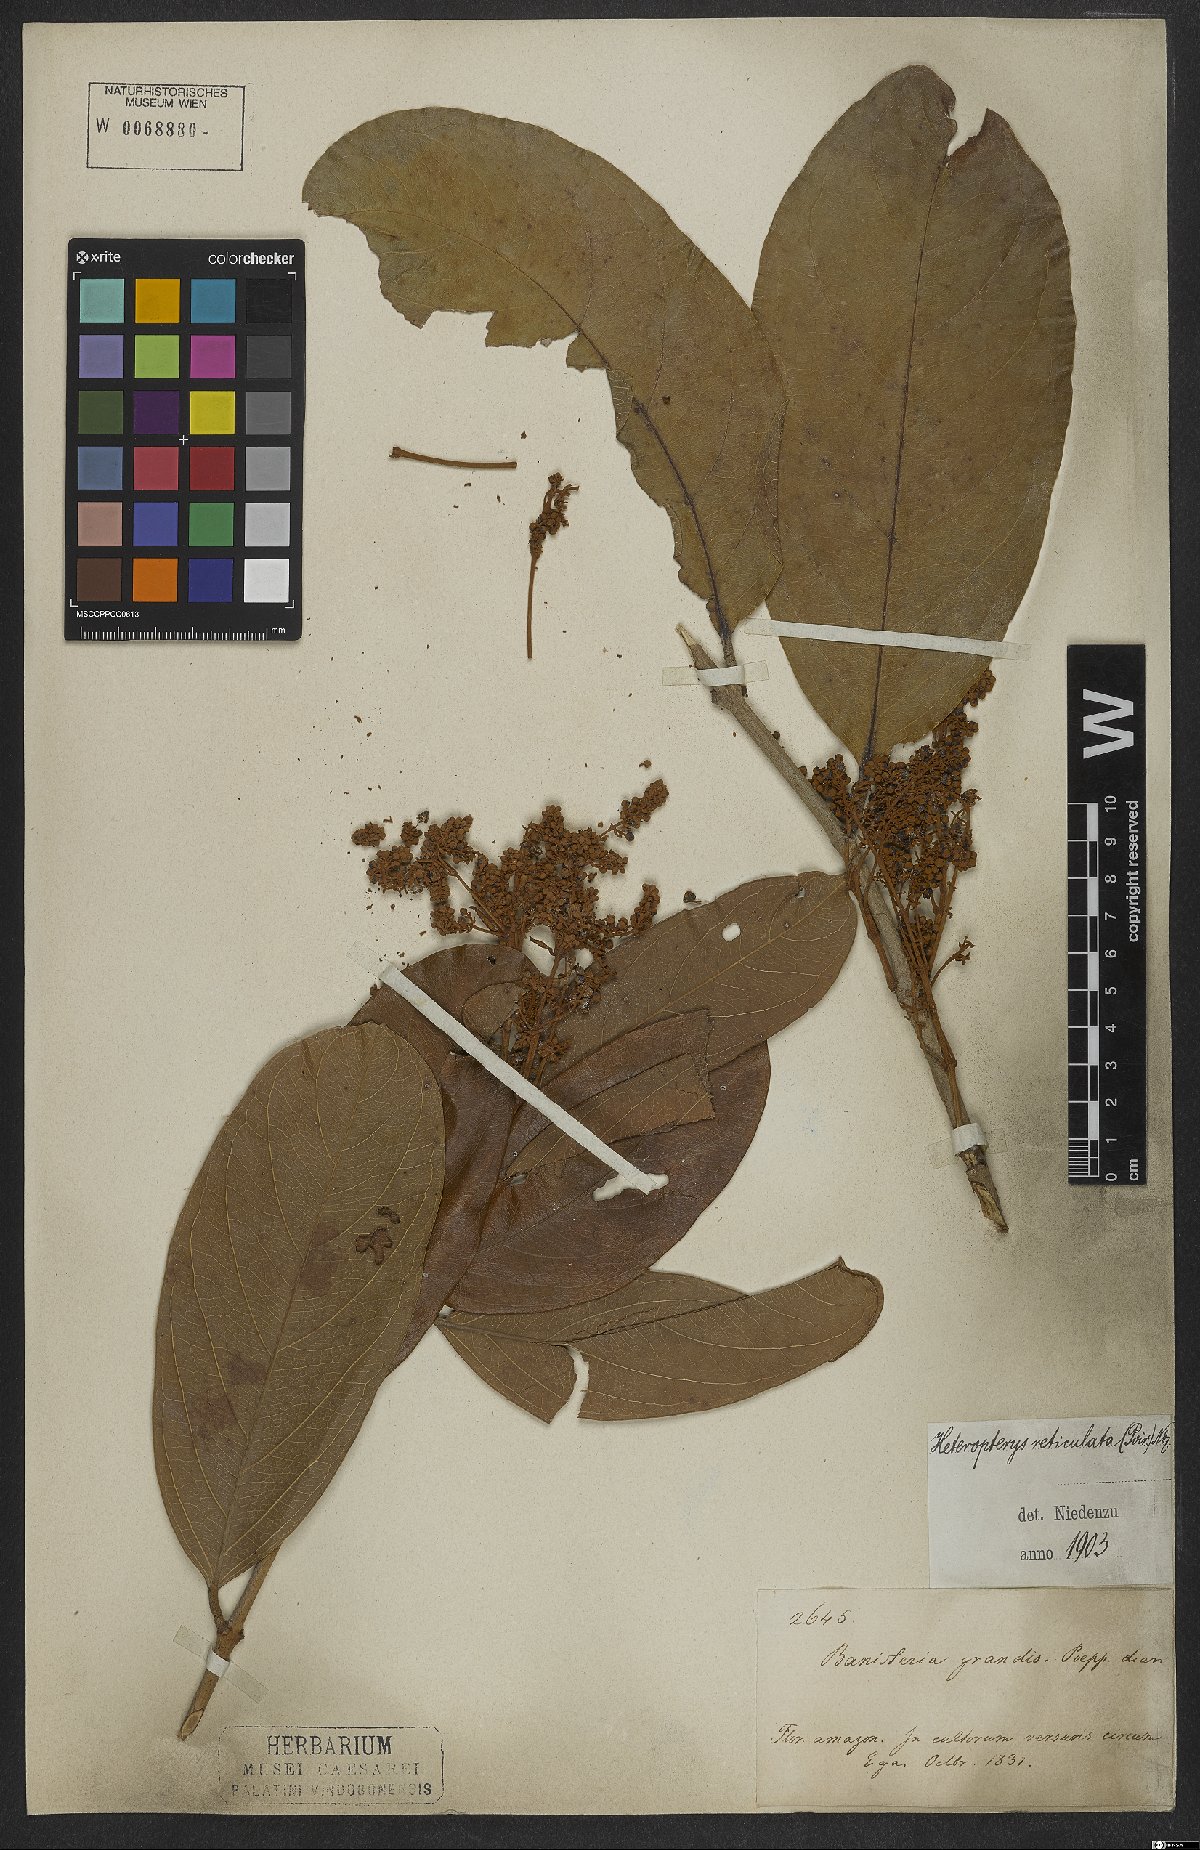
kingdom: Plantae
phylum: Tracheophyta
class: Magnoliopsida
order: Malpighiales
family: Malpighiaceae
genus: Heteropterys
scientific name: Heteropterys reticulata
